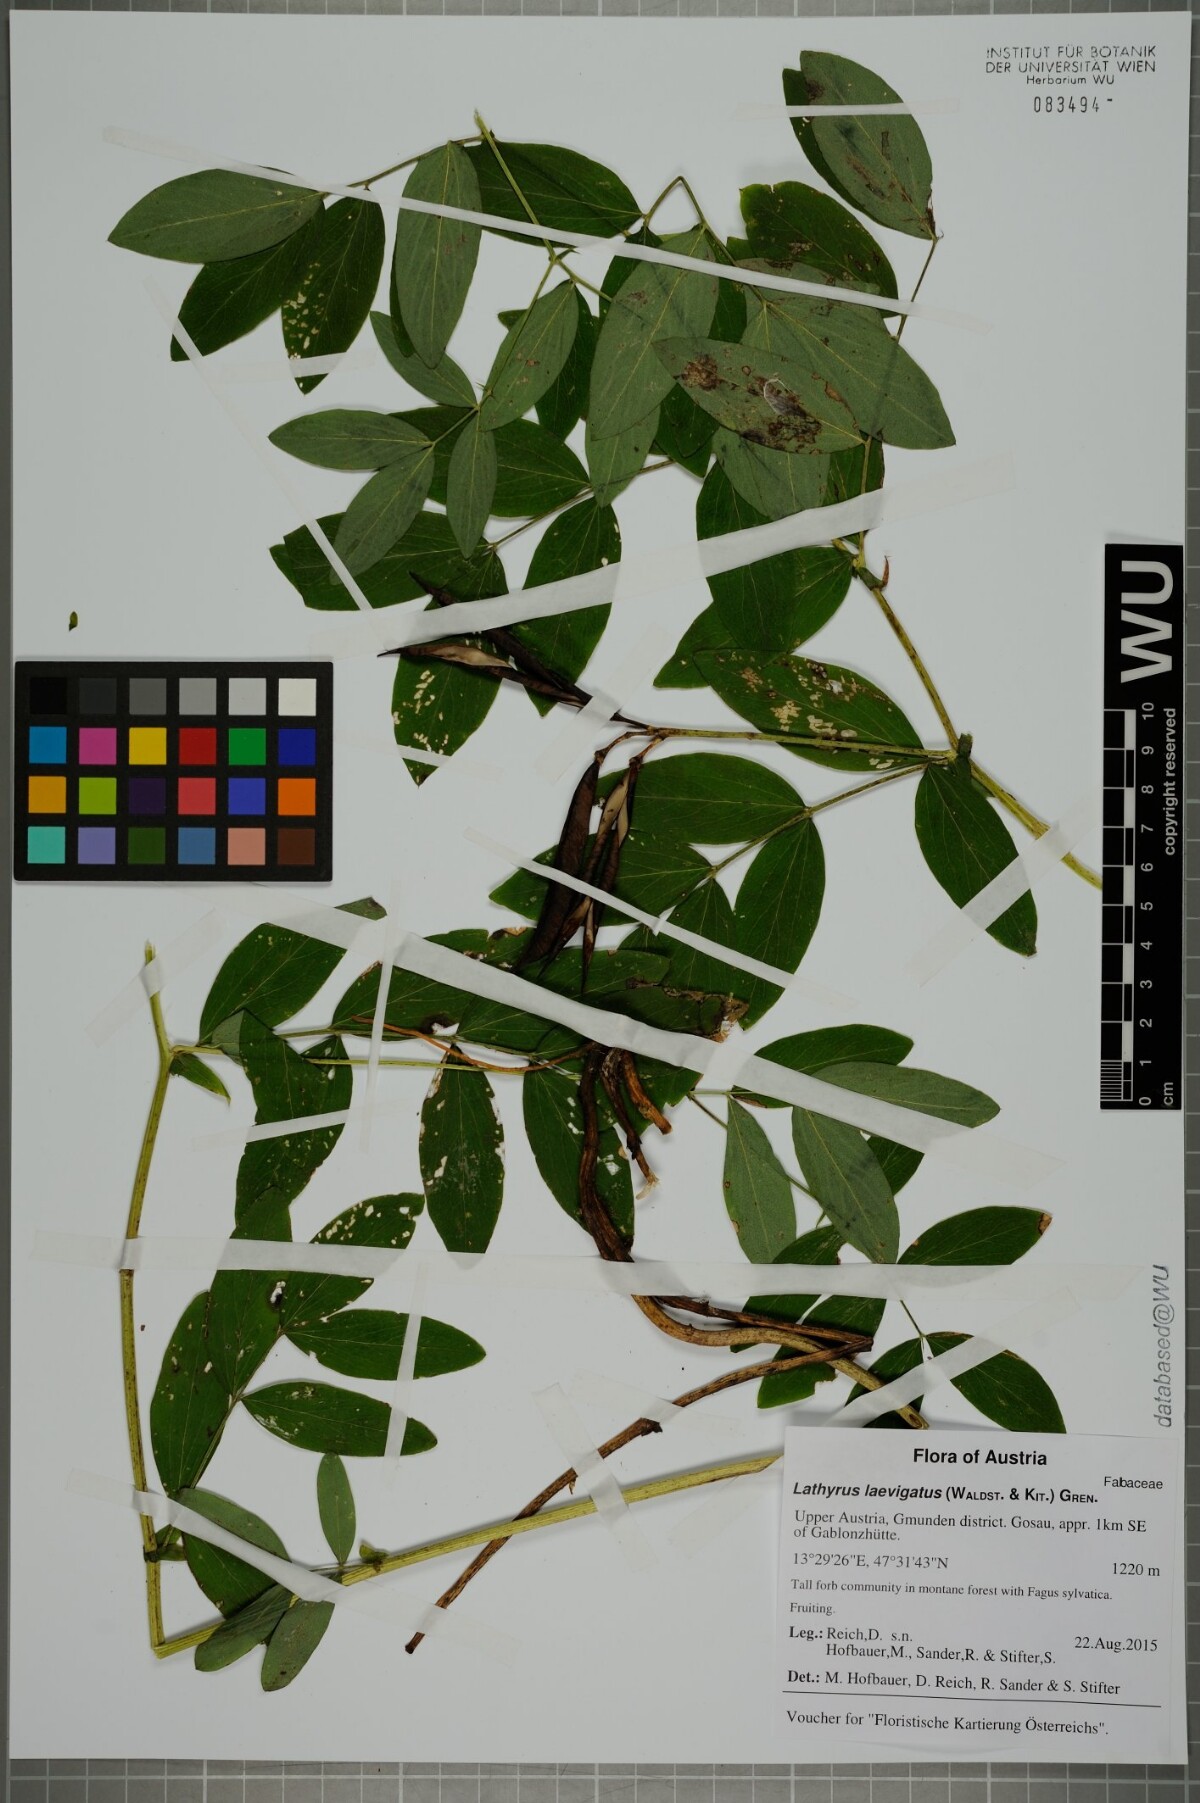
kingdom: Plantae
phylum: Tracheophyta
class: Magnoliopsida
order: Fabales
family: Fabaceae
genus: Lathyrus
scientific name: Lathyrus laevigatus
